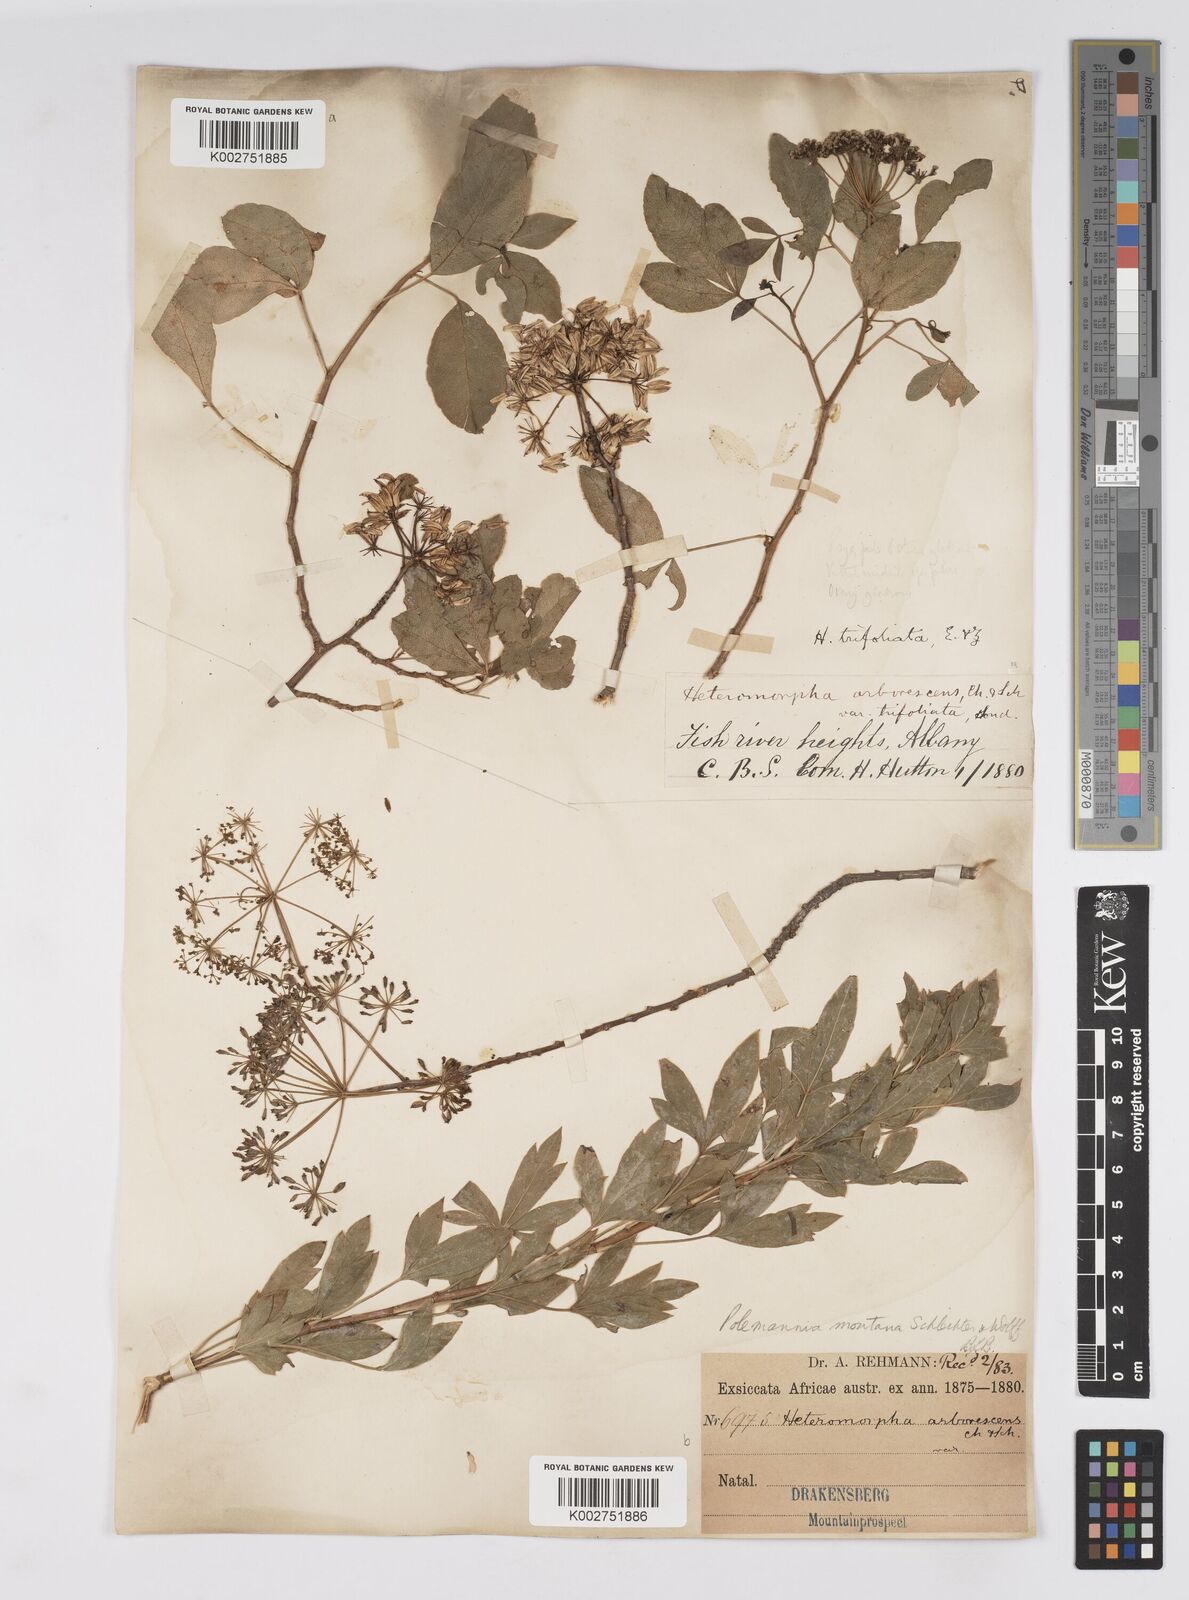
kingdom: Plantae
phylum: Tracheophyta
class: Magnoliopsida
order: Apiales
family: Apiaceae
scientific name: Apiaceae
